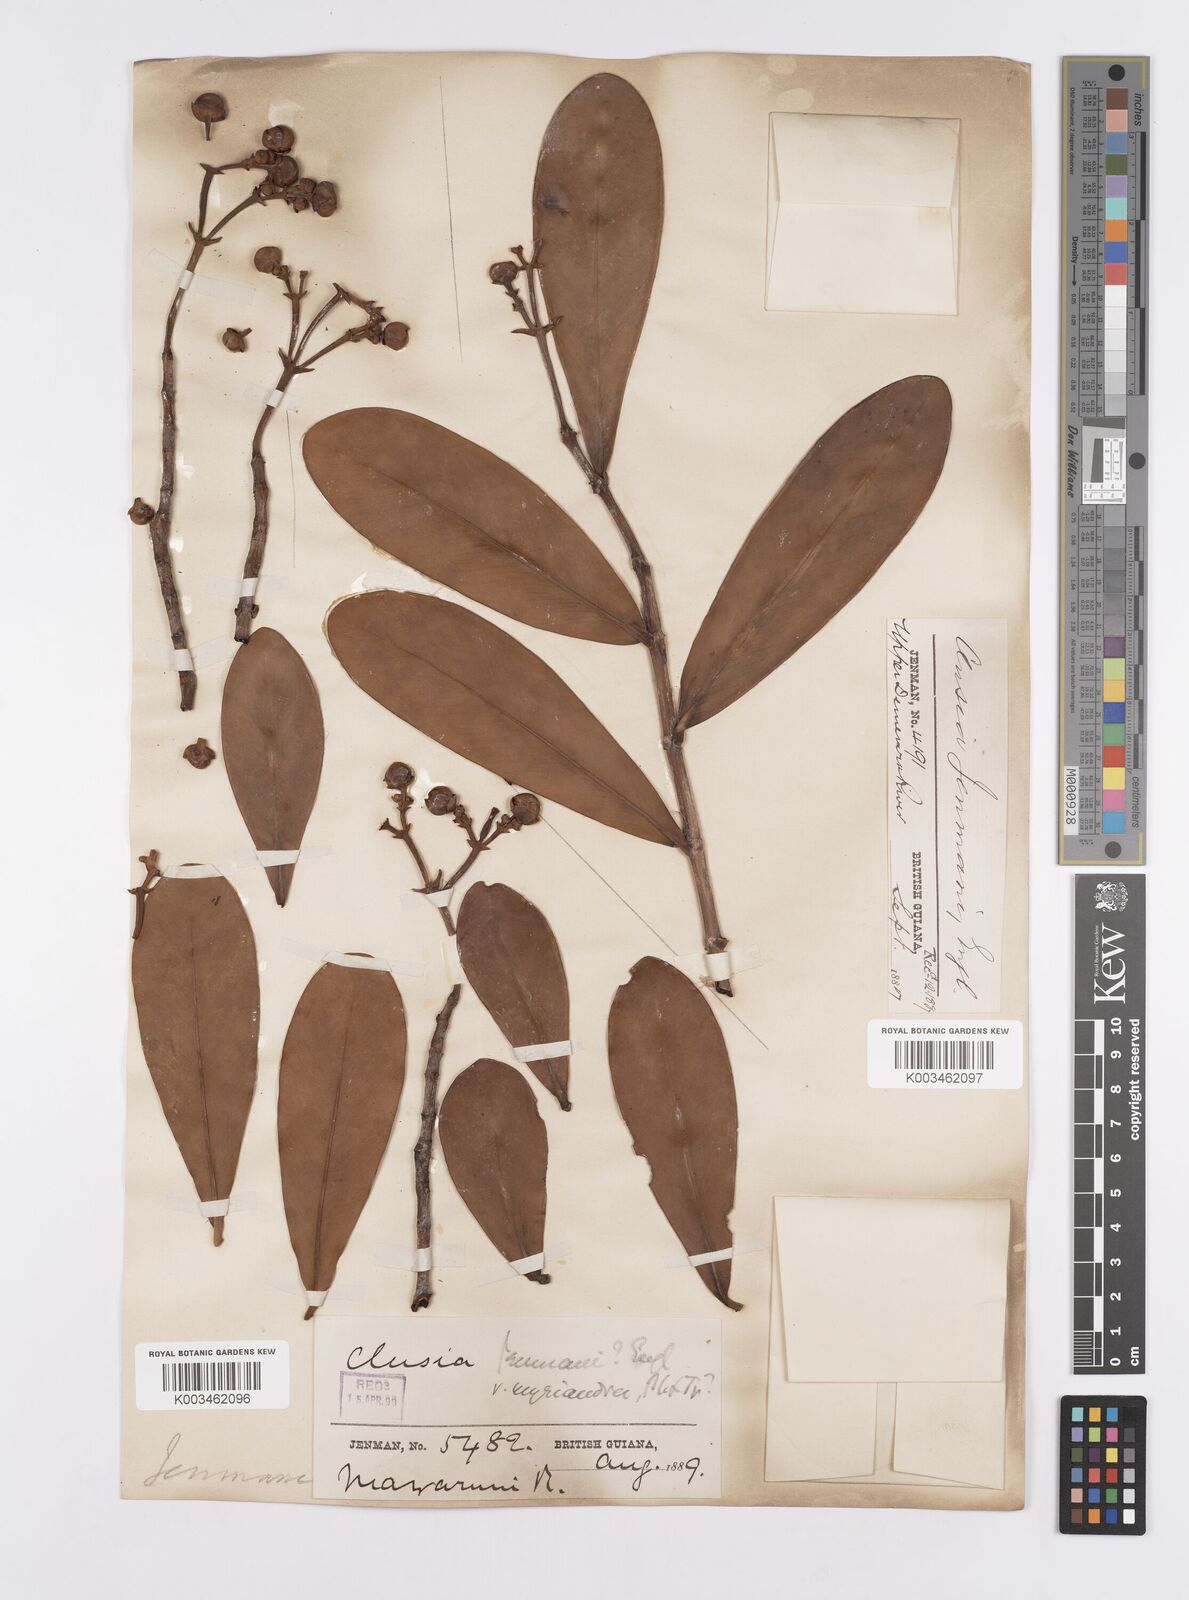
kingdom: Plantae
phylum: Tracheophyta
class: Magnoliopsida
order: Malpighiales
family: Clusiaceae
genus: Clusia
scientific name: Clusia myriandra
